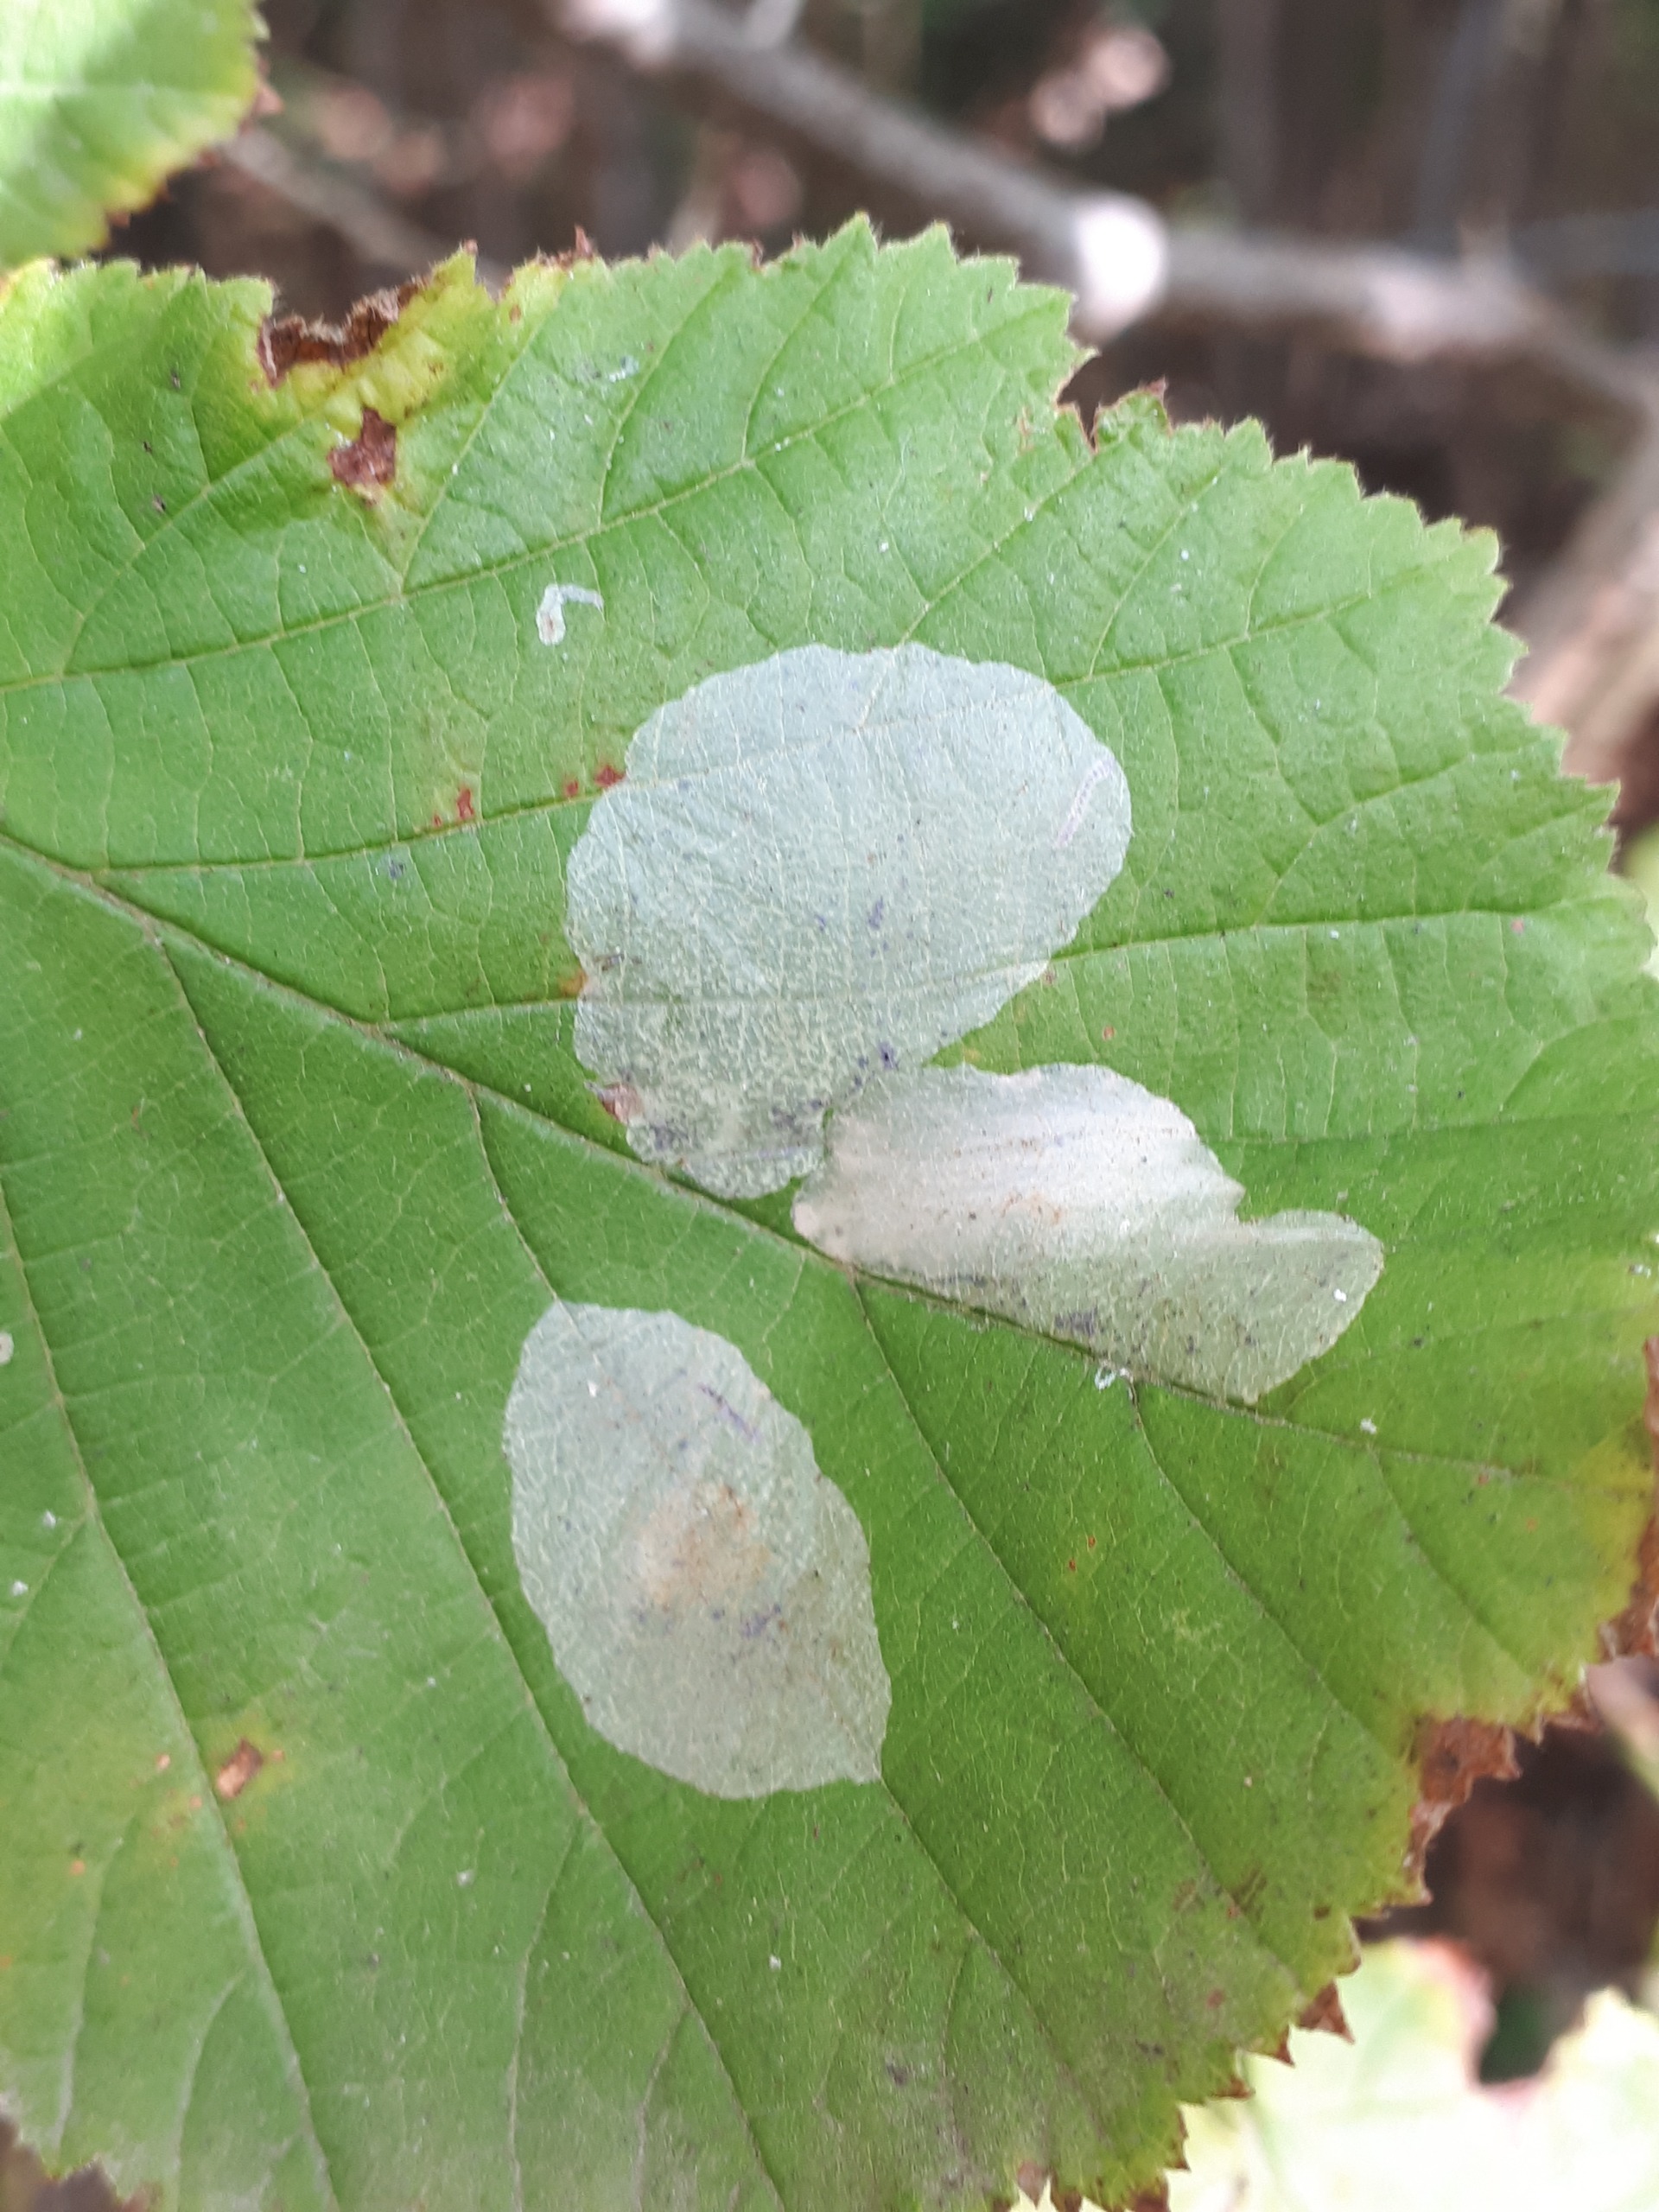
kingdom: Animalia
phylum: Arthropoda
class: Insecta
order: Lepidoptera
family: Gracillariidae
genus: Phyllonorycter
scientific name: Phyllonorycter coryli
